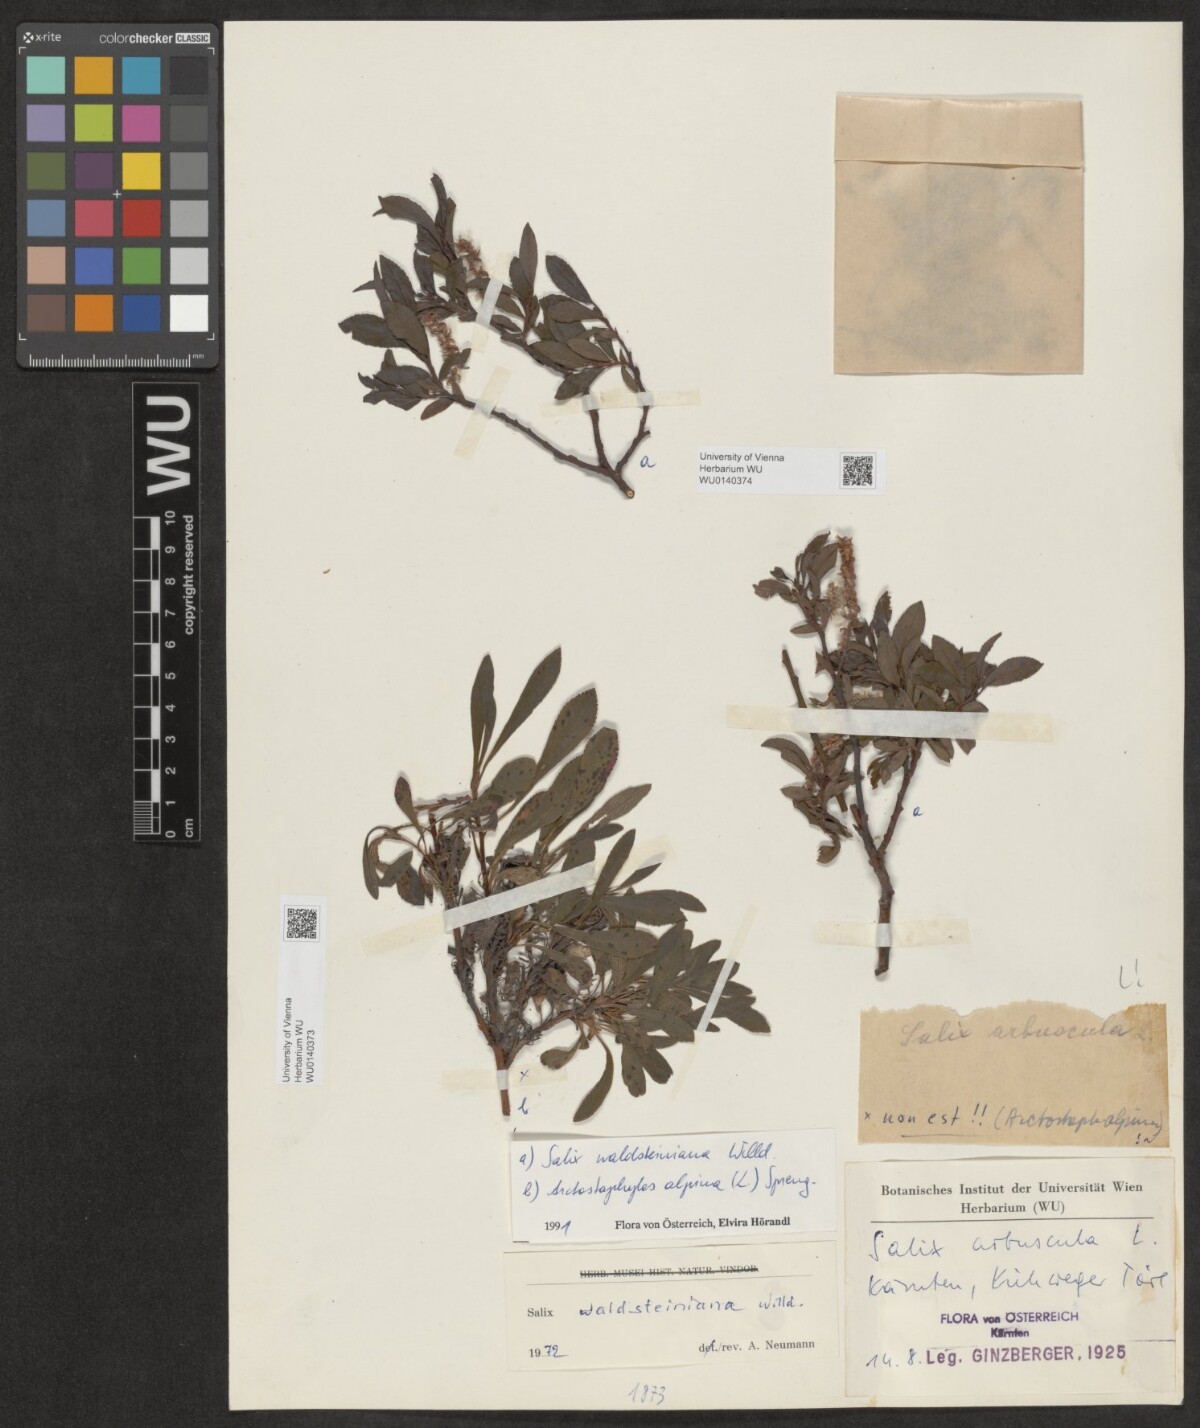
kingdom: Plantae
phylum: Tracheophyta
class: Magnoliopsida
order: Malpighiales
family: Salicaceae
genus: Salix
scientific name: Salix waldsteiniana
